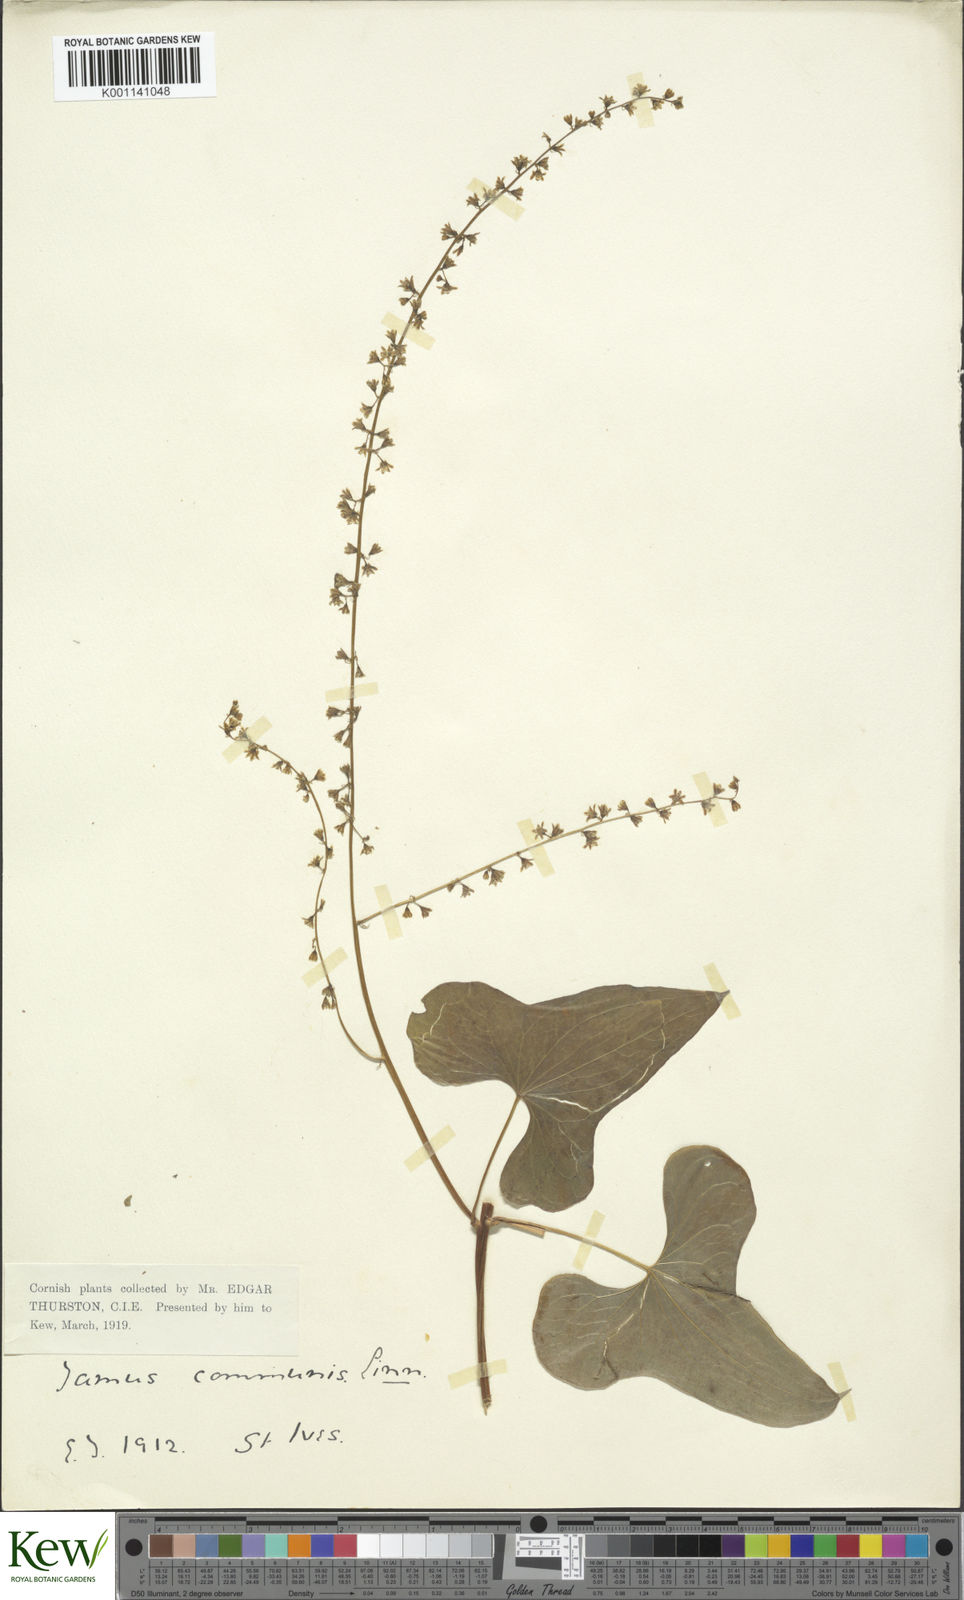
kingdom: Plantae
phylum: Tracheophyta
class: Liliopsida
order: Dioscoreales
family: Dioscoreaceae
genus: Dioscorea
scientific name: Dioscorea communis
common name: Black-bindweed
